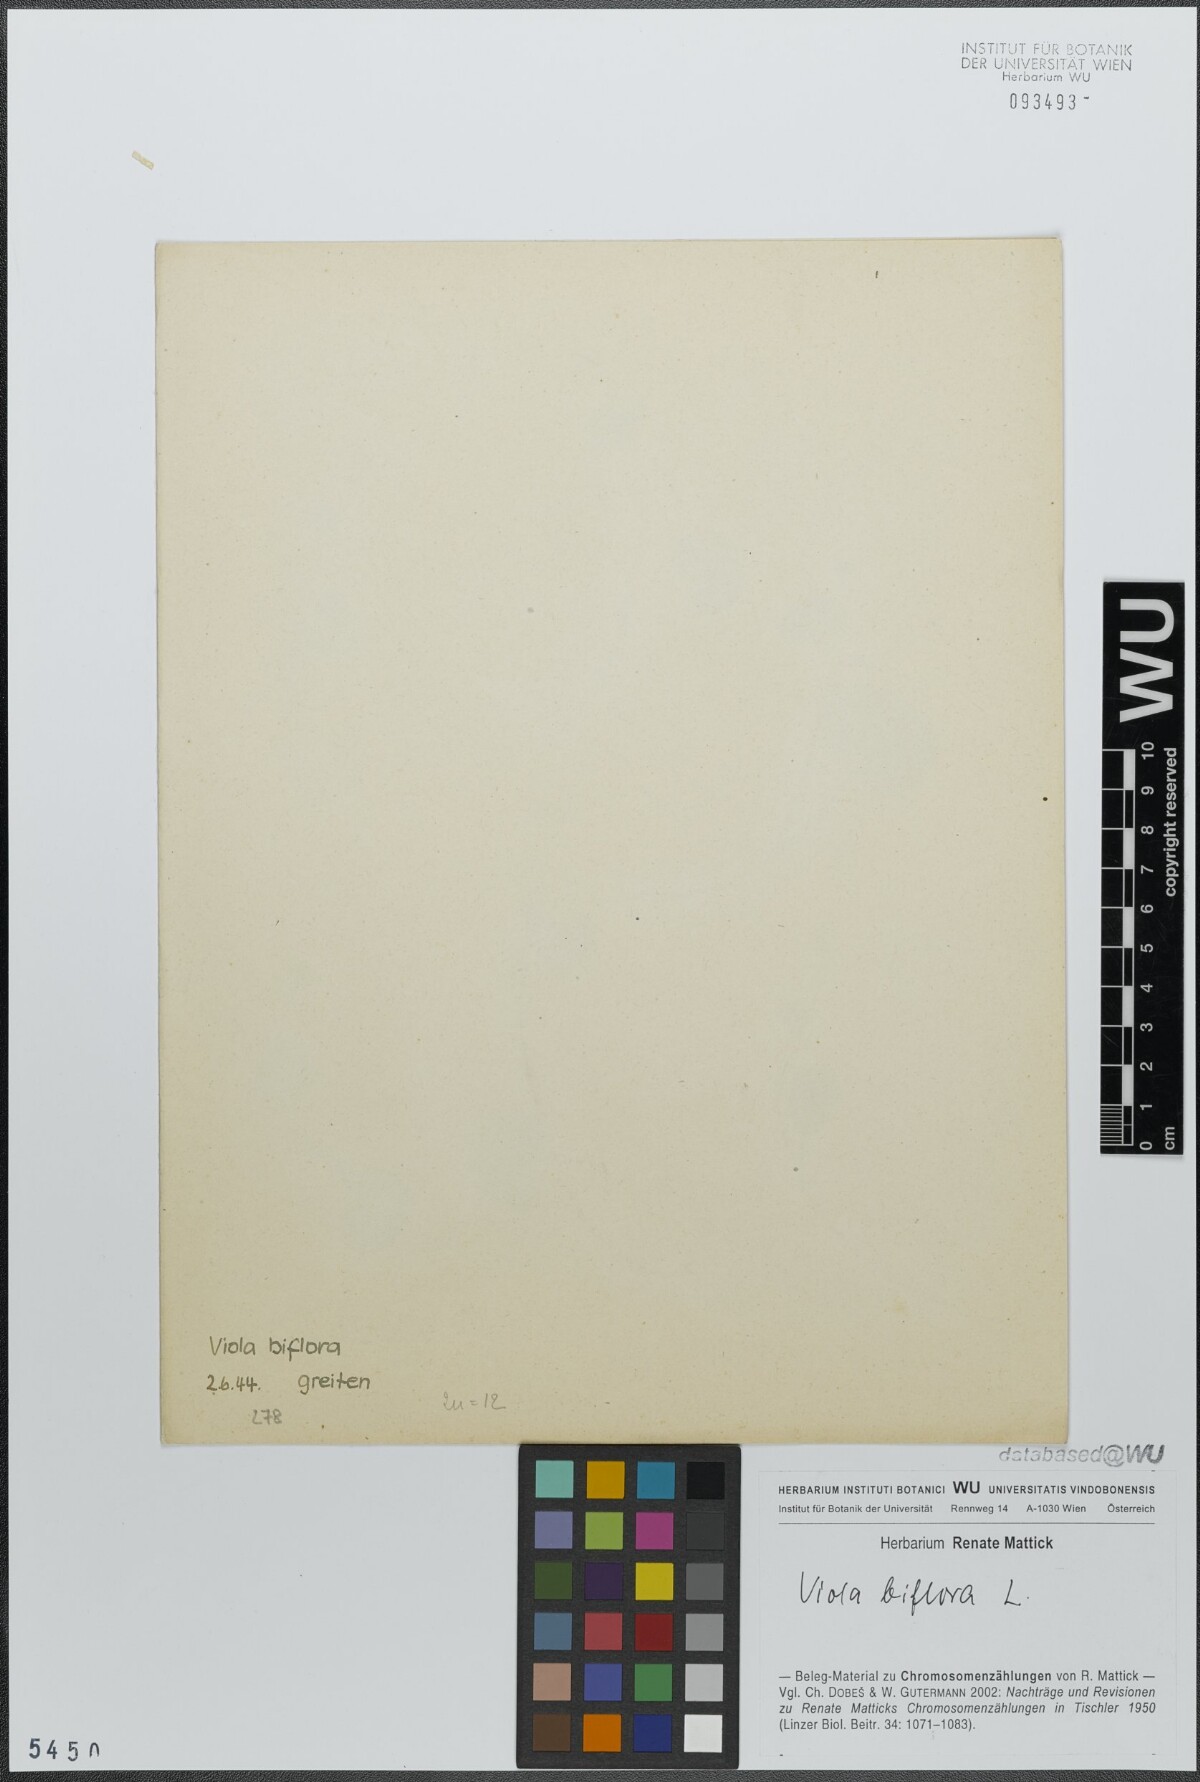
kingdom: Plantae
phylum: Tracheophyta
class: Magnoliopsida
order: Malpighiales
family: Violaceae
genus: Viola
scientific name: Viola biflora
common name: Alpine yellow violet
